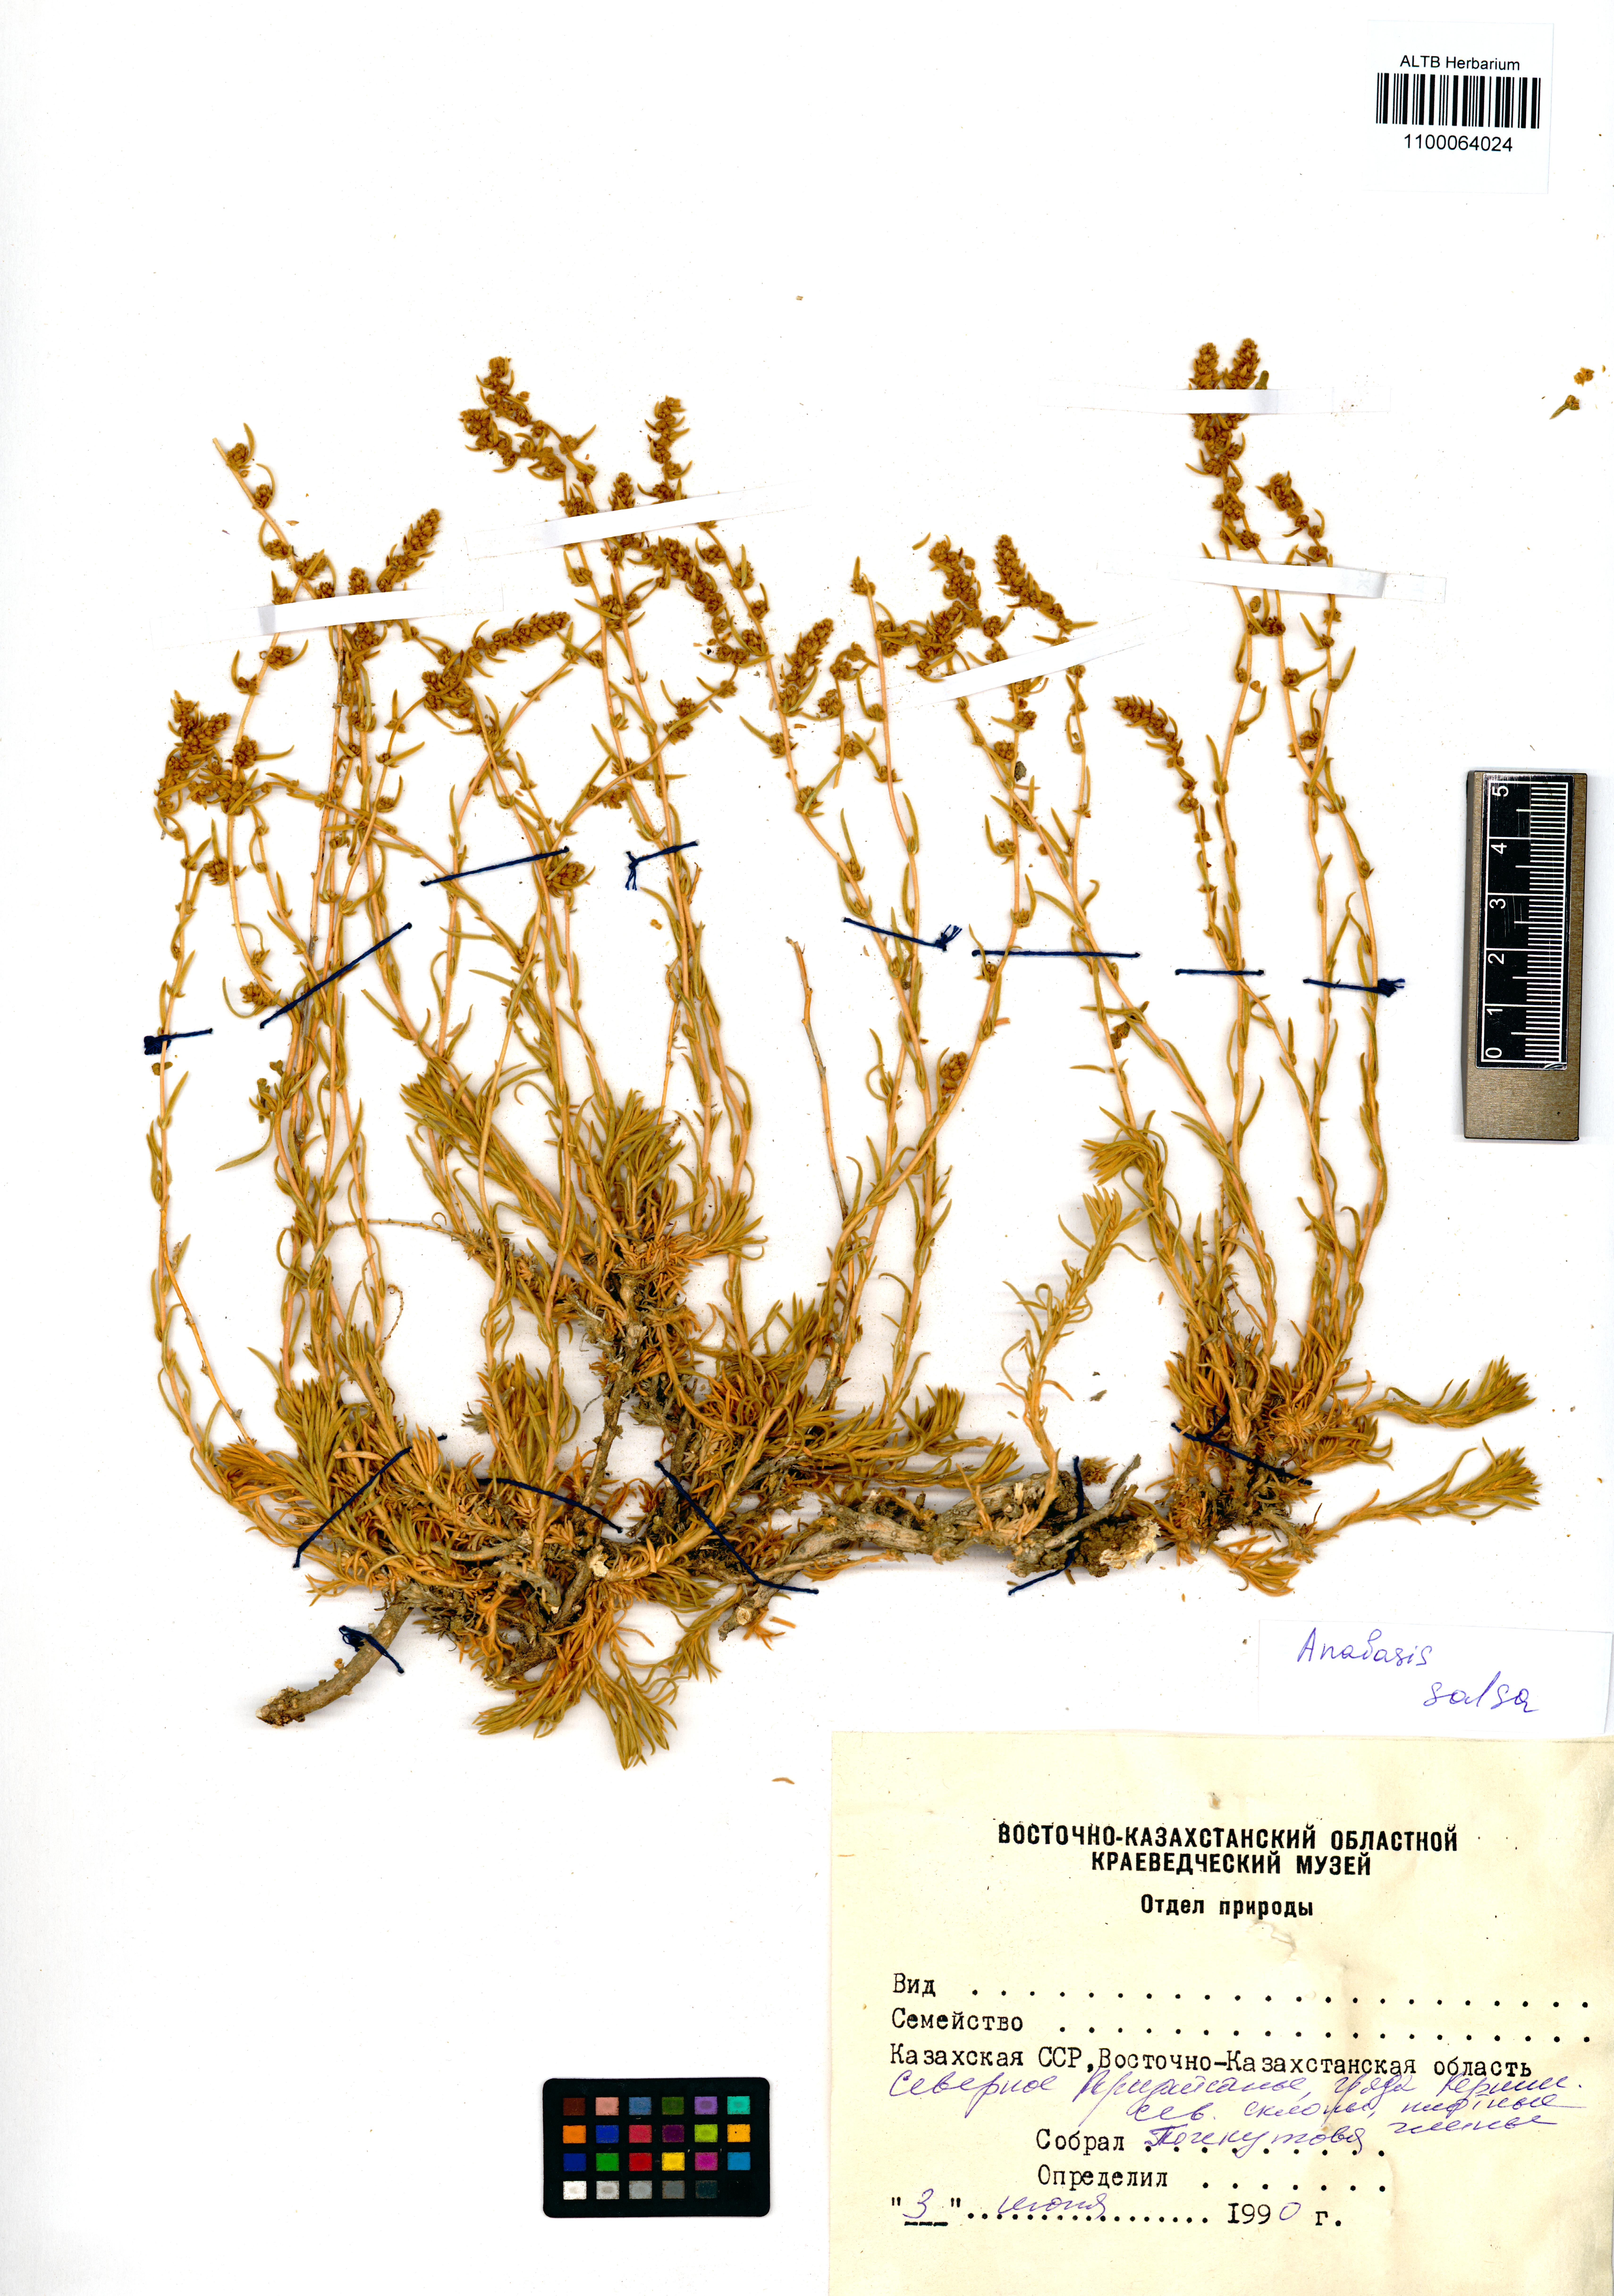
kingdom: Plantae
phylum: Tracheophyta
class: Magnoliopsida
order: Caryophyllales
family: Amaranthaceae
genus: Anabasis
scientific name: Anabasis salsa
